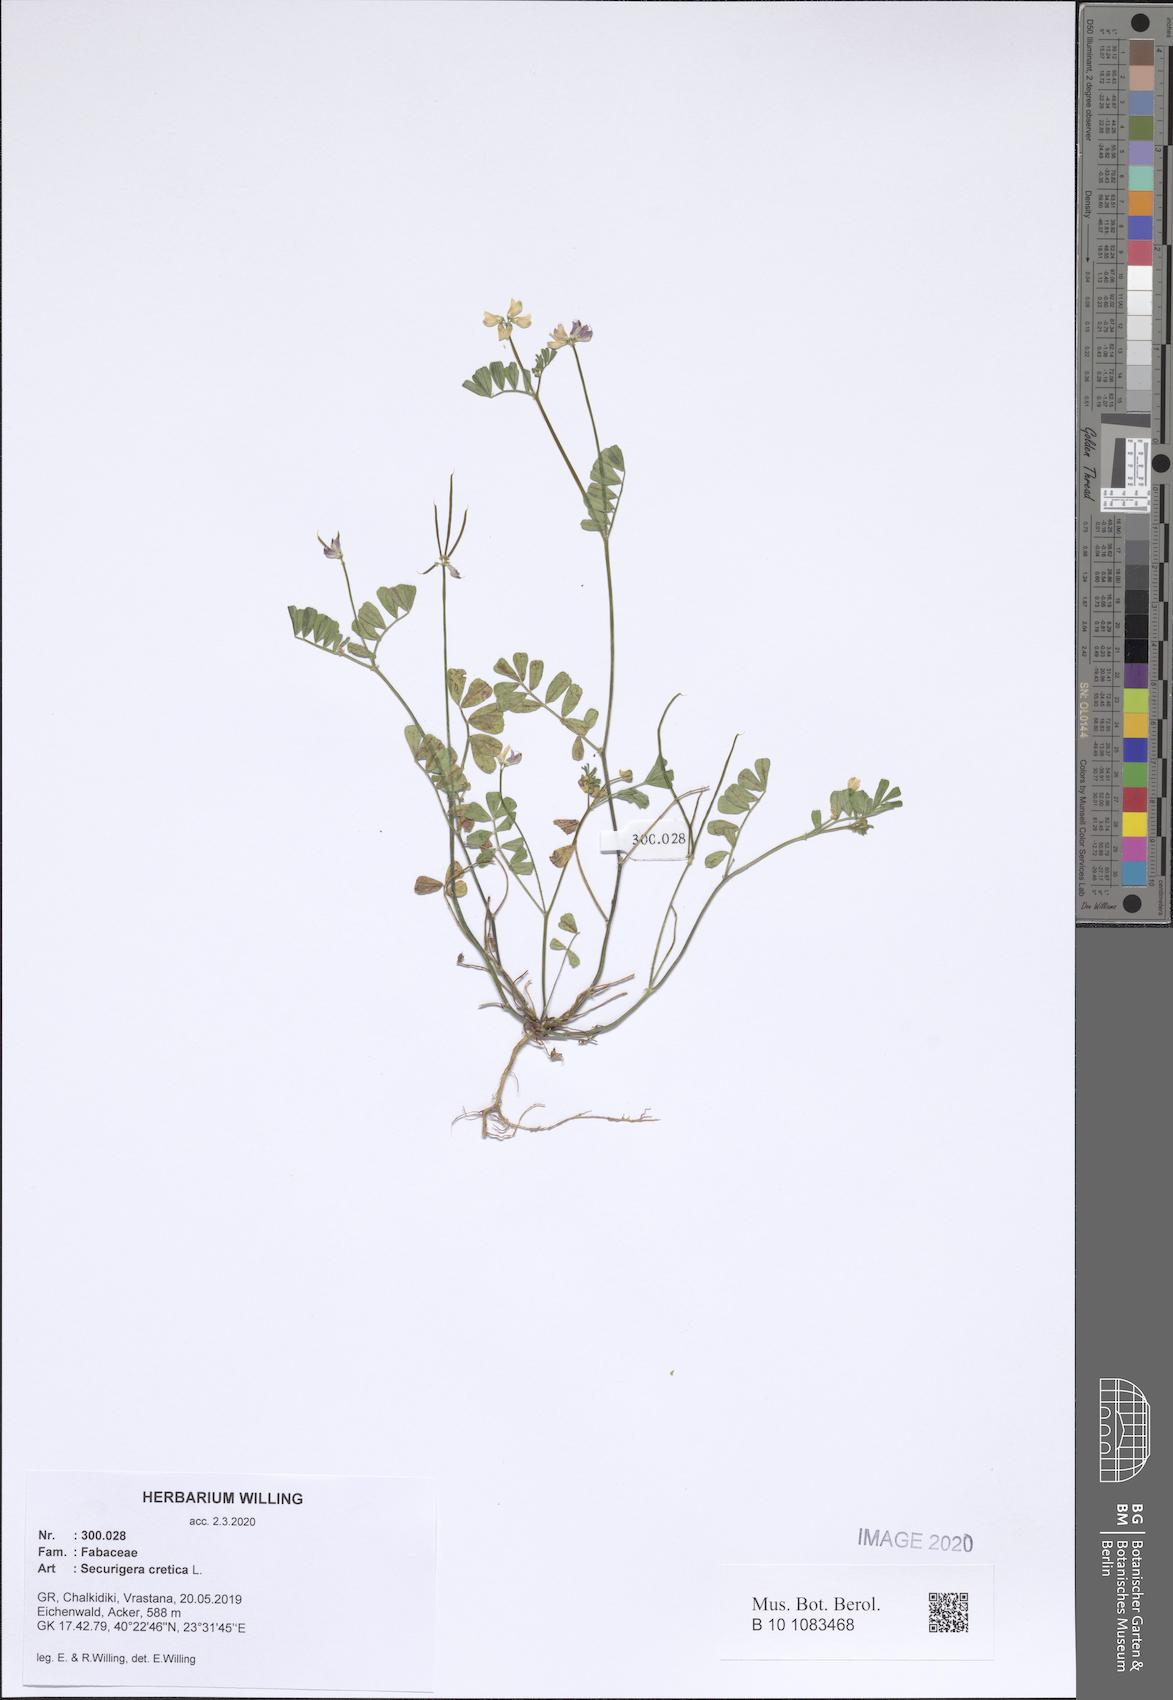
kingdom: Plantae
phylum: Tracheophyta
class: Magnoliopsida
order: Fabales
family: Fabaceae
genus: Coronilla
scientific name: Coronilla cretica
